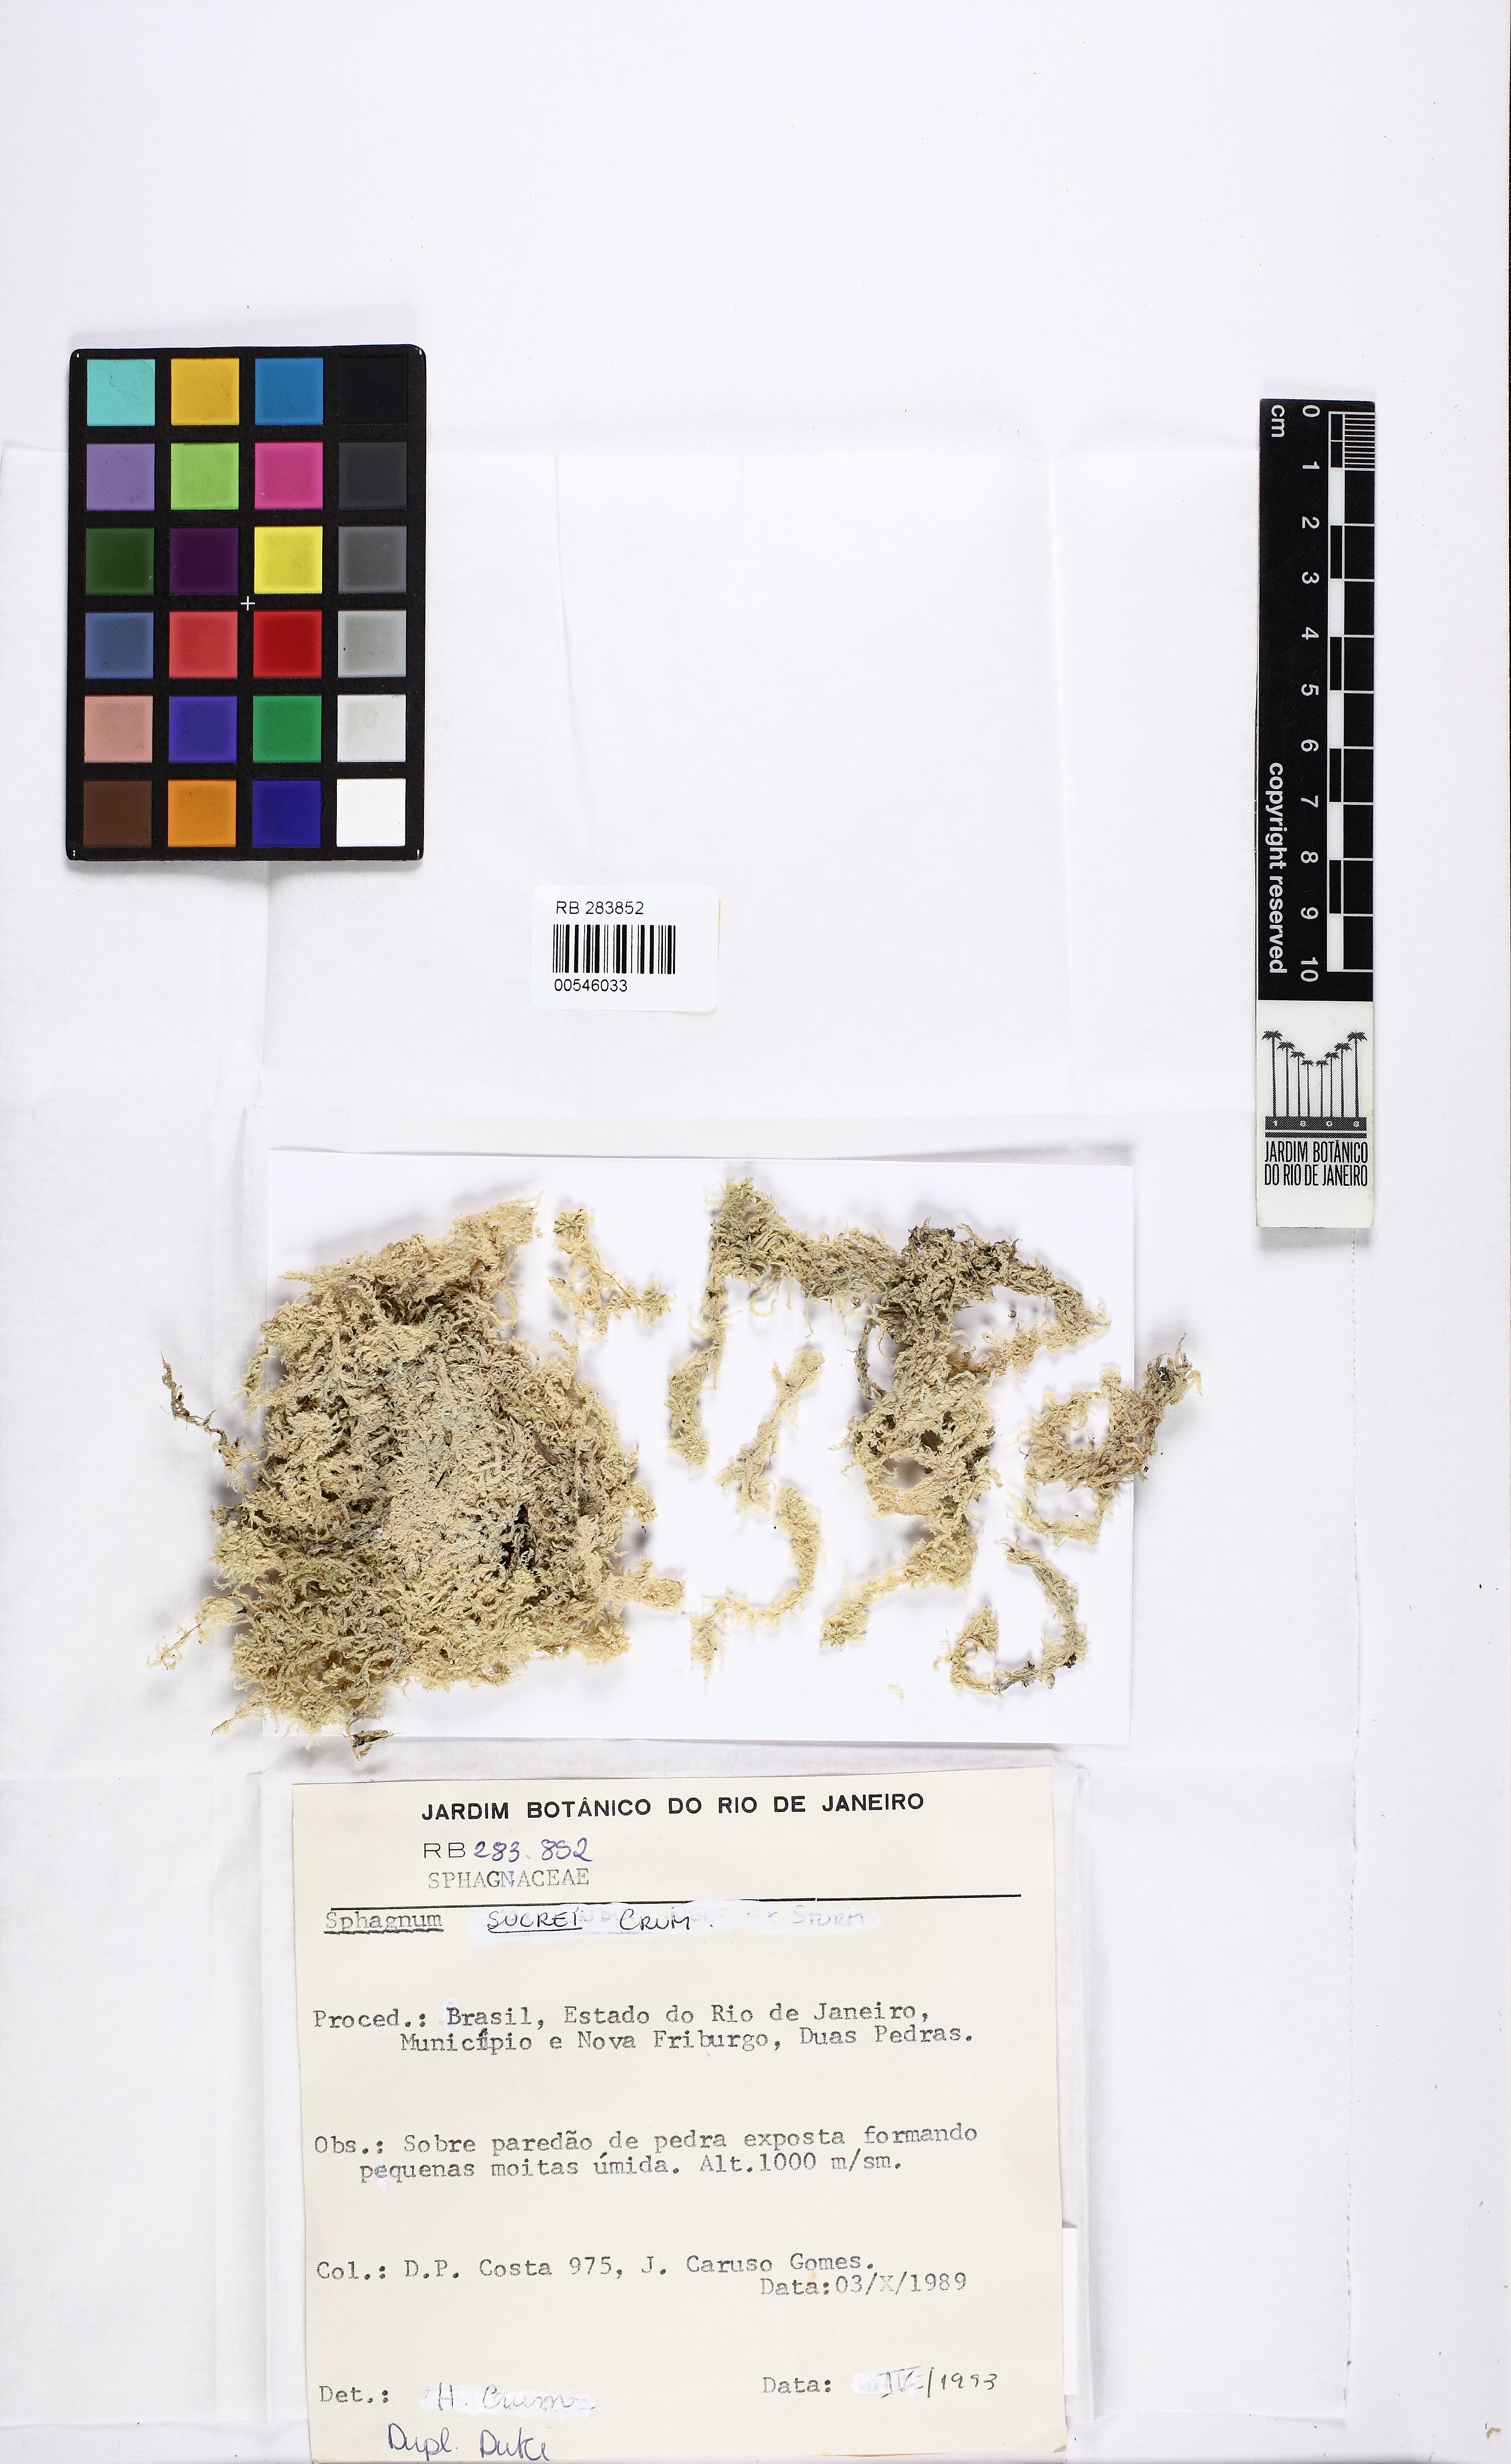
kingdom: Plantae
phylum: Bryophyta
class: Sphagnopsida
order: Sphagnales
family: Sphagnaceae
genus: Sphagnum
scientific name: Sphagnum sucrei
